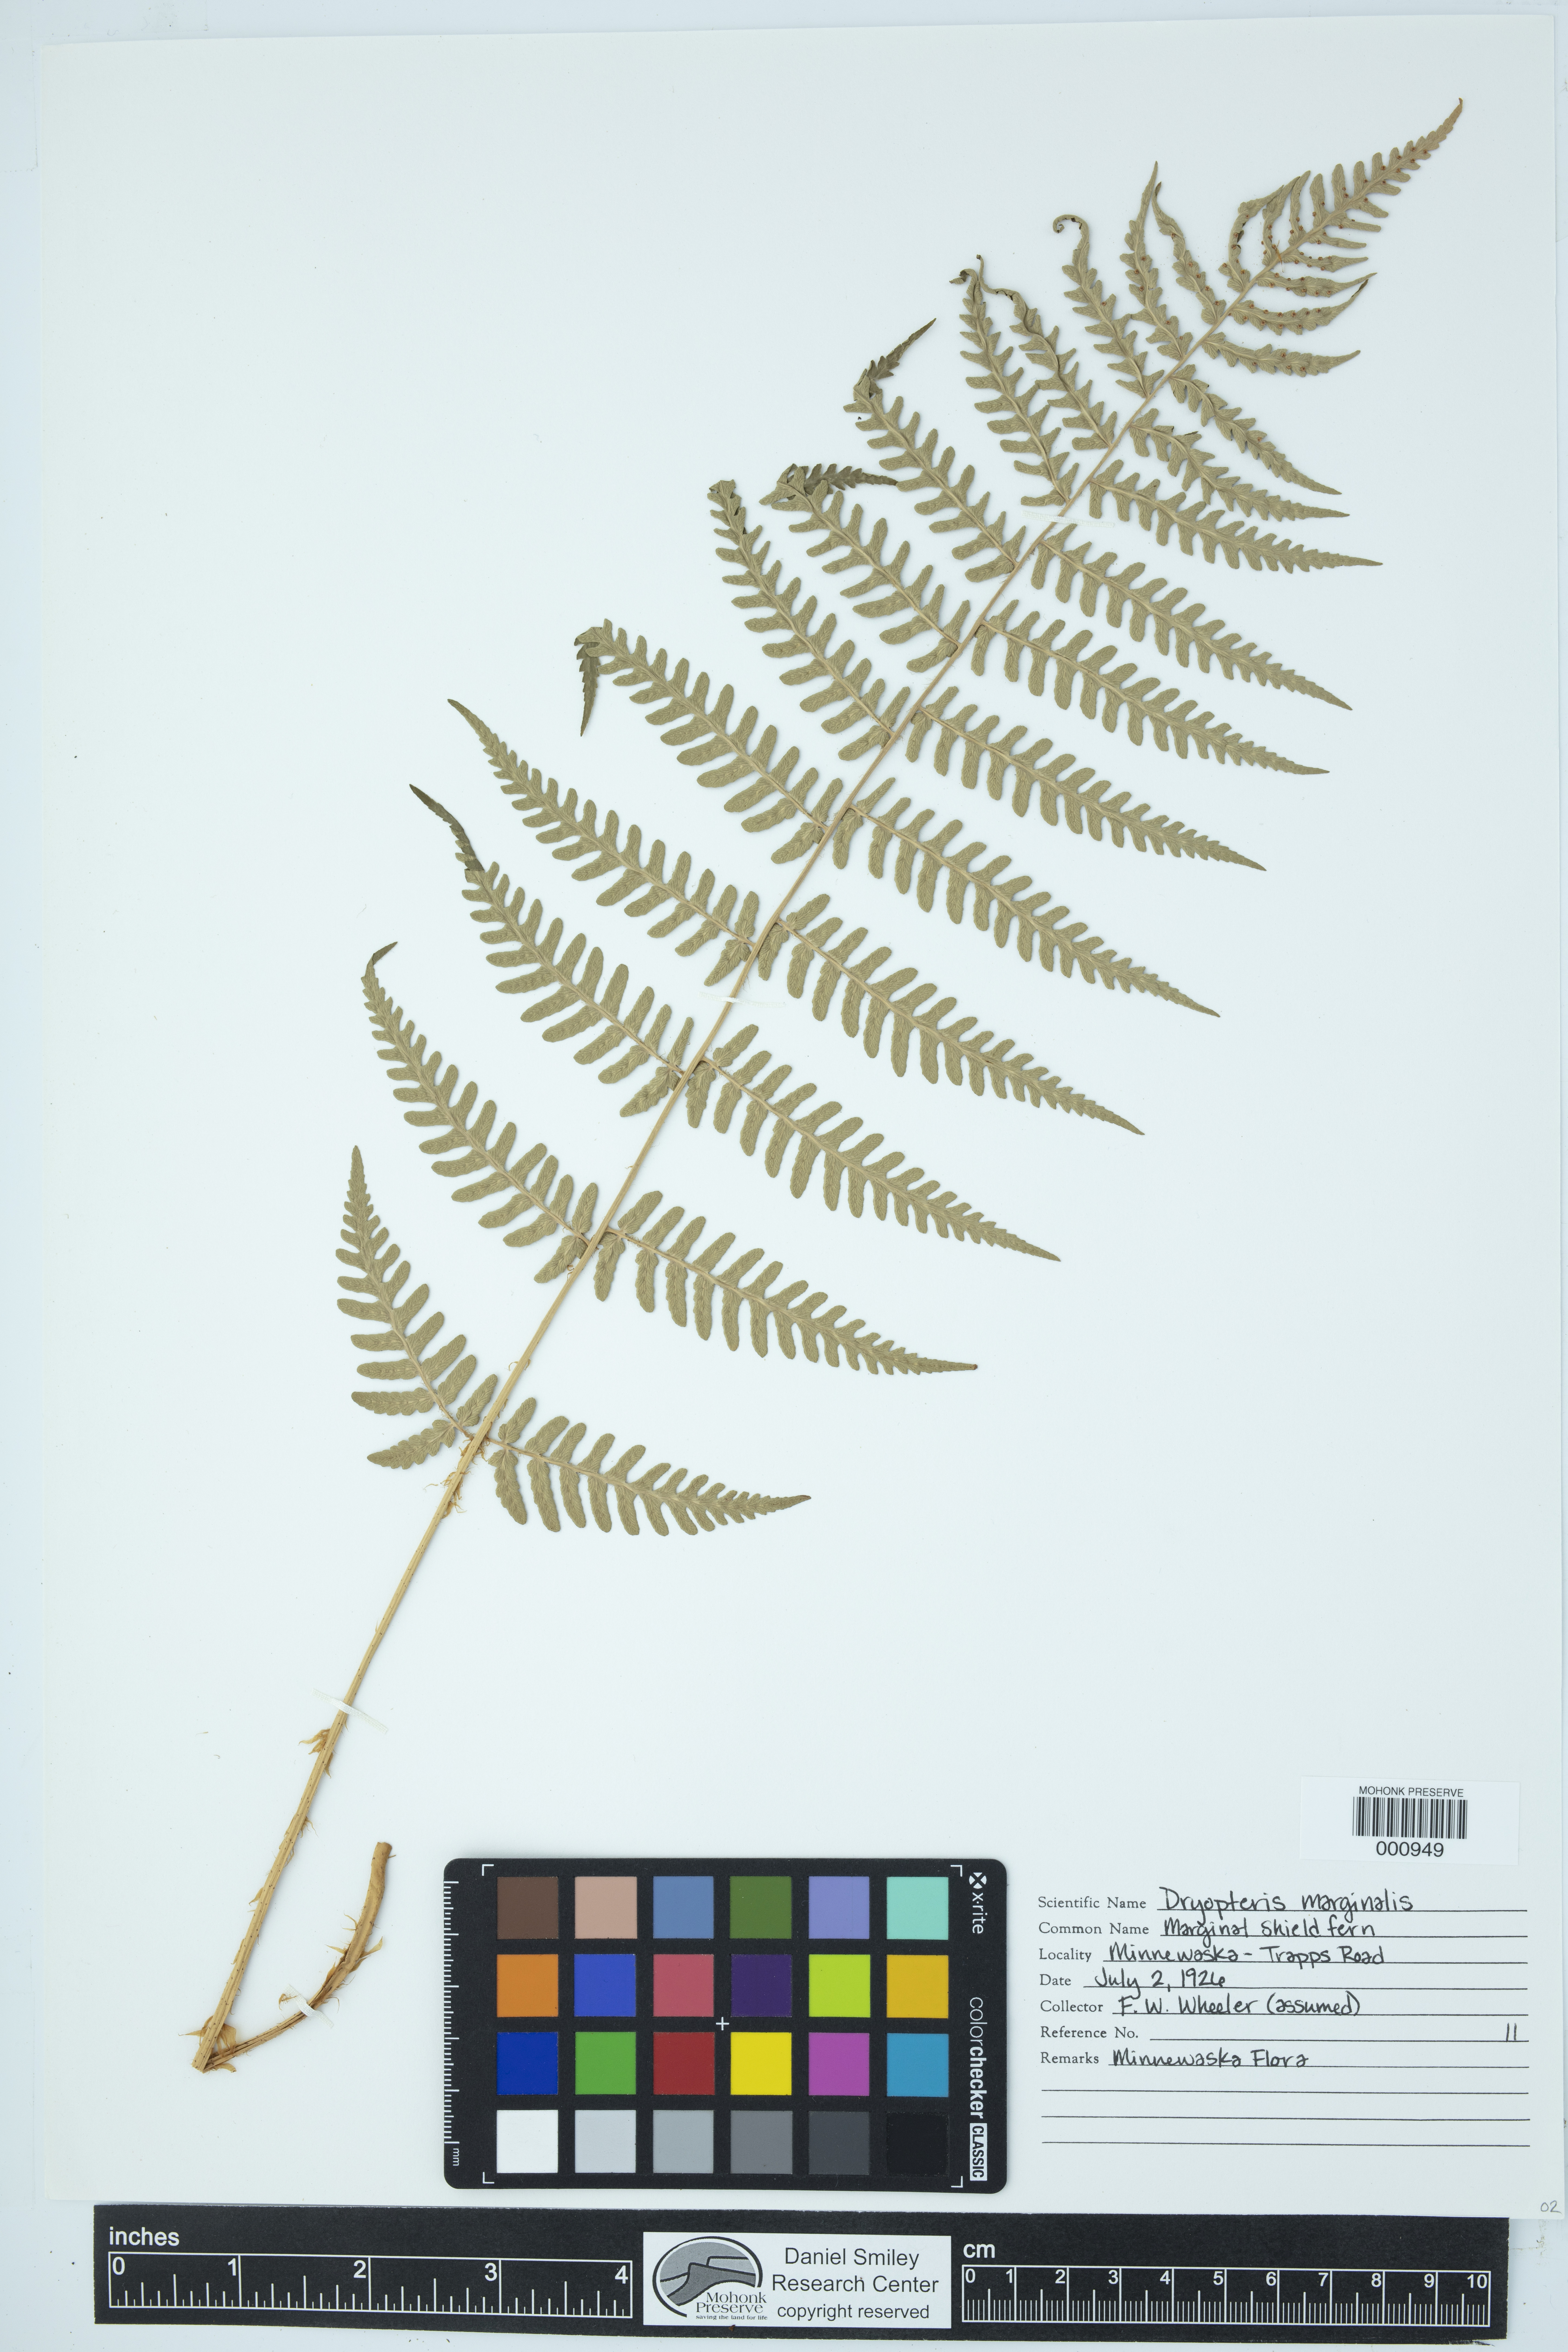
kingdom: Plantae
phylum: Tracheophyta
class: Polypodiopsida
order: Polypodiales
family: Dryopteridaceae
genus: Dryopteris
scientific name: Dryopteris marginalis
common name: Marginal wood fern
